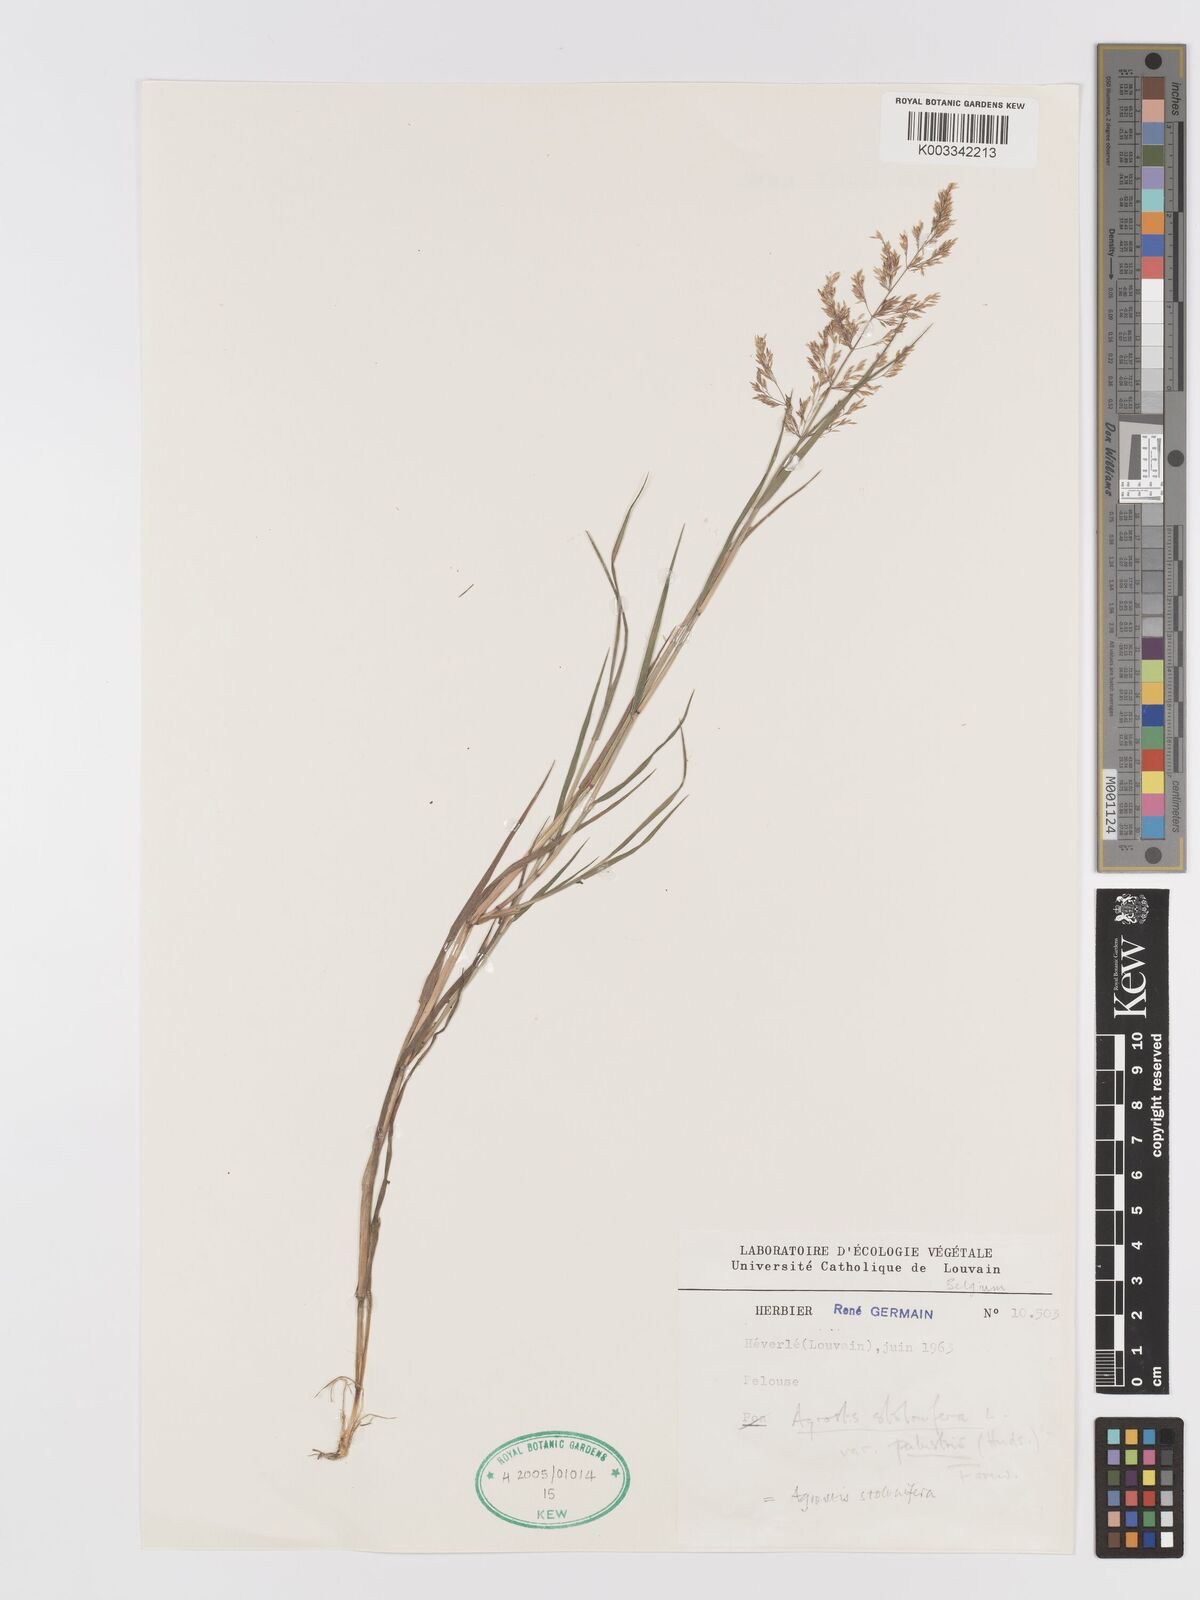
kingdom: Plantae
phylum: Tracheophyta
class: Liliopsida
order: Poales
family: Poaceae
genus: Agrostis
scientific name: Agrostis stolonifera
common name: Creeping bentgrass
